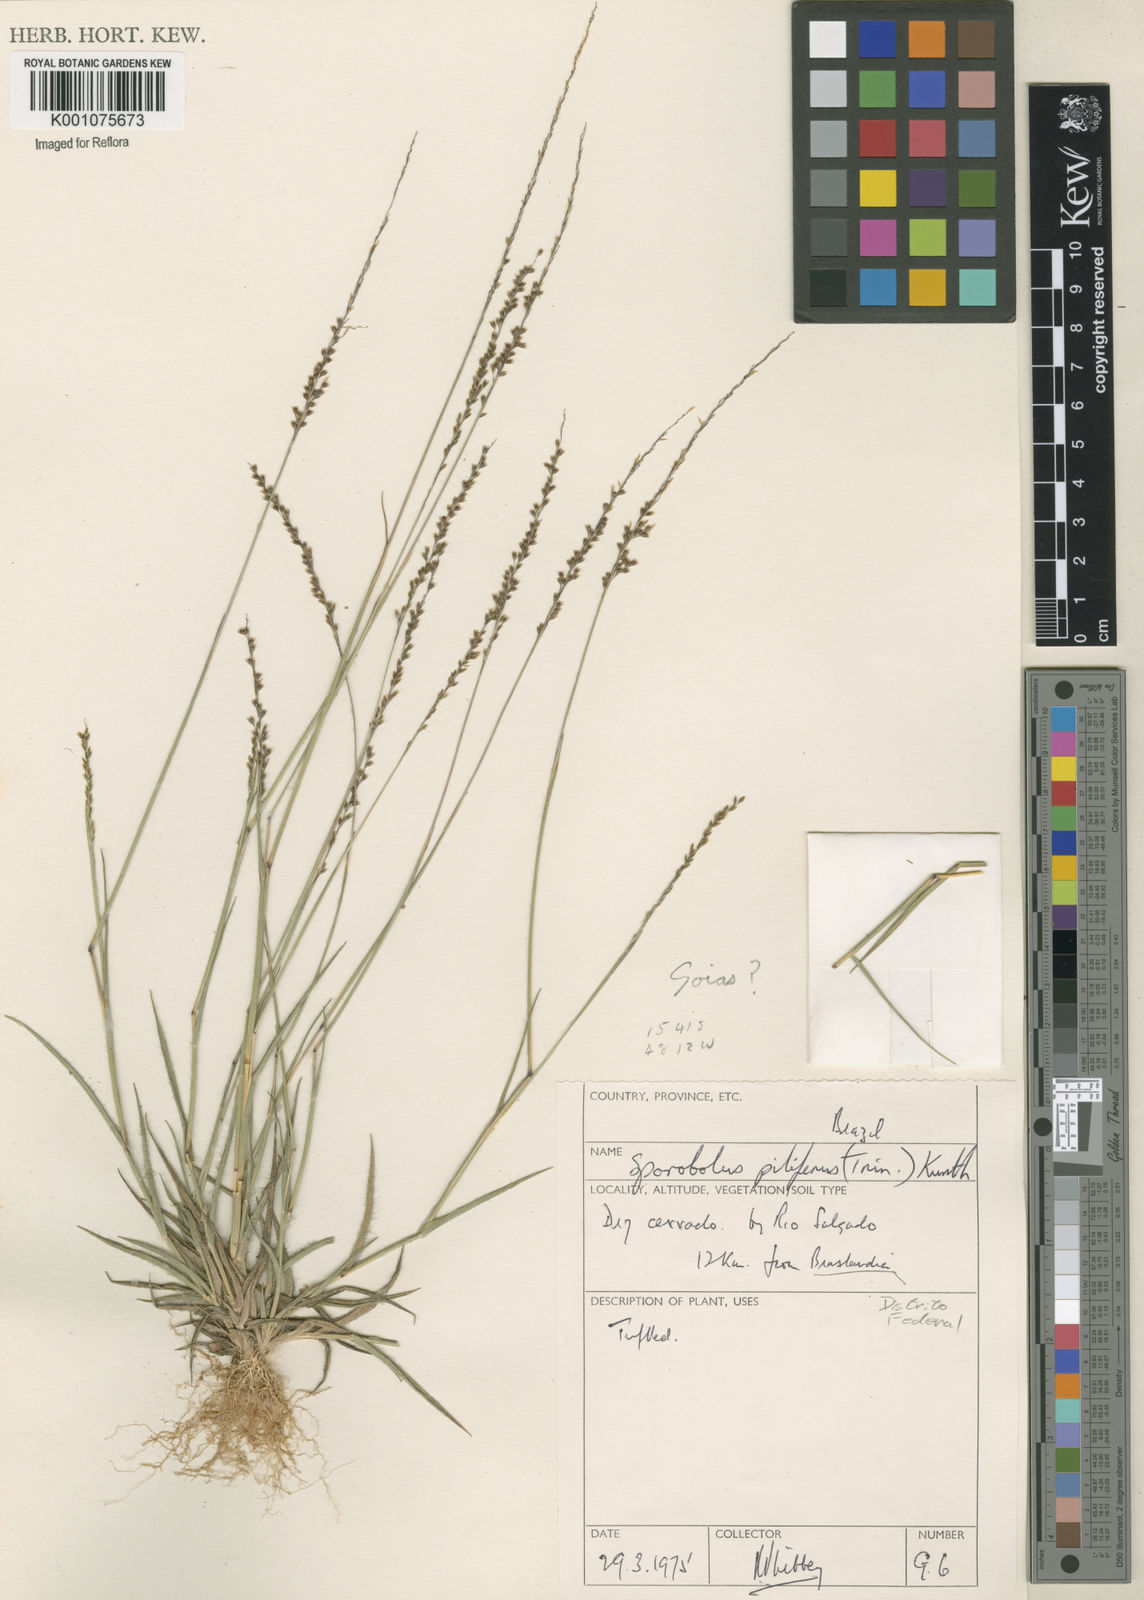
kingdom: Plantae
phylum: Tracheophyta
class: Liliopsida
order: Poales
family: Poaceae
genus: Sporobolus
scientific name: Sporobolus pilifer
